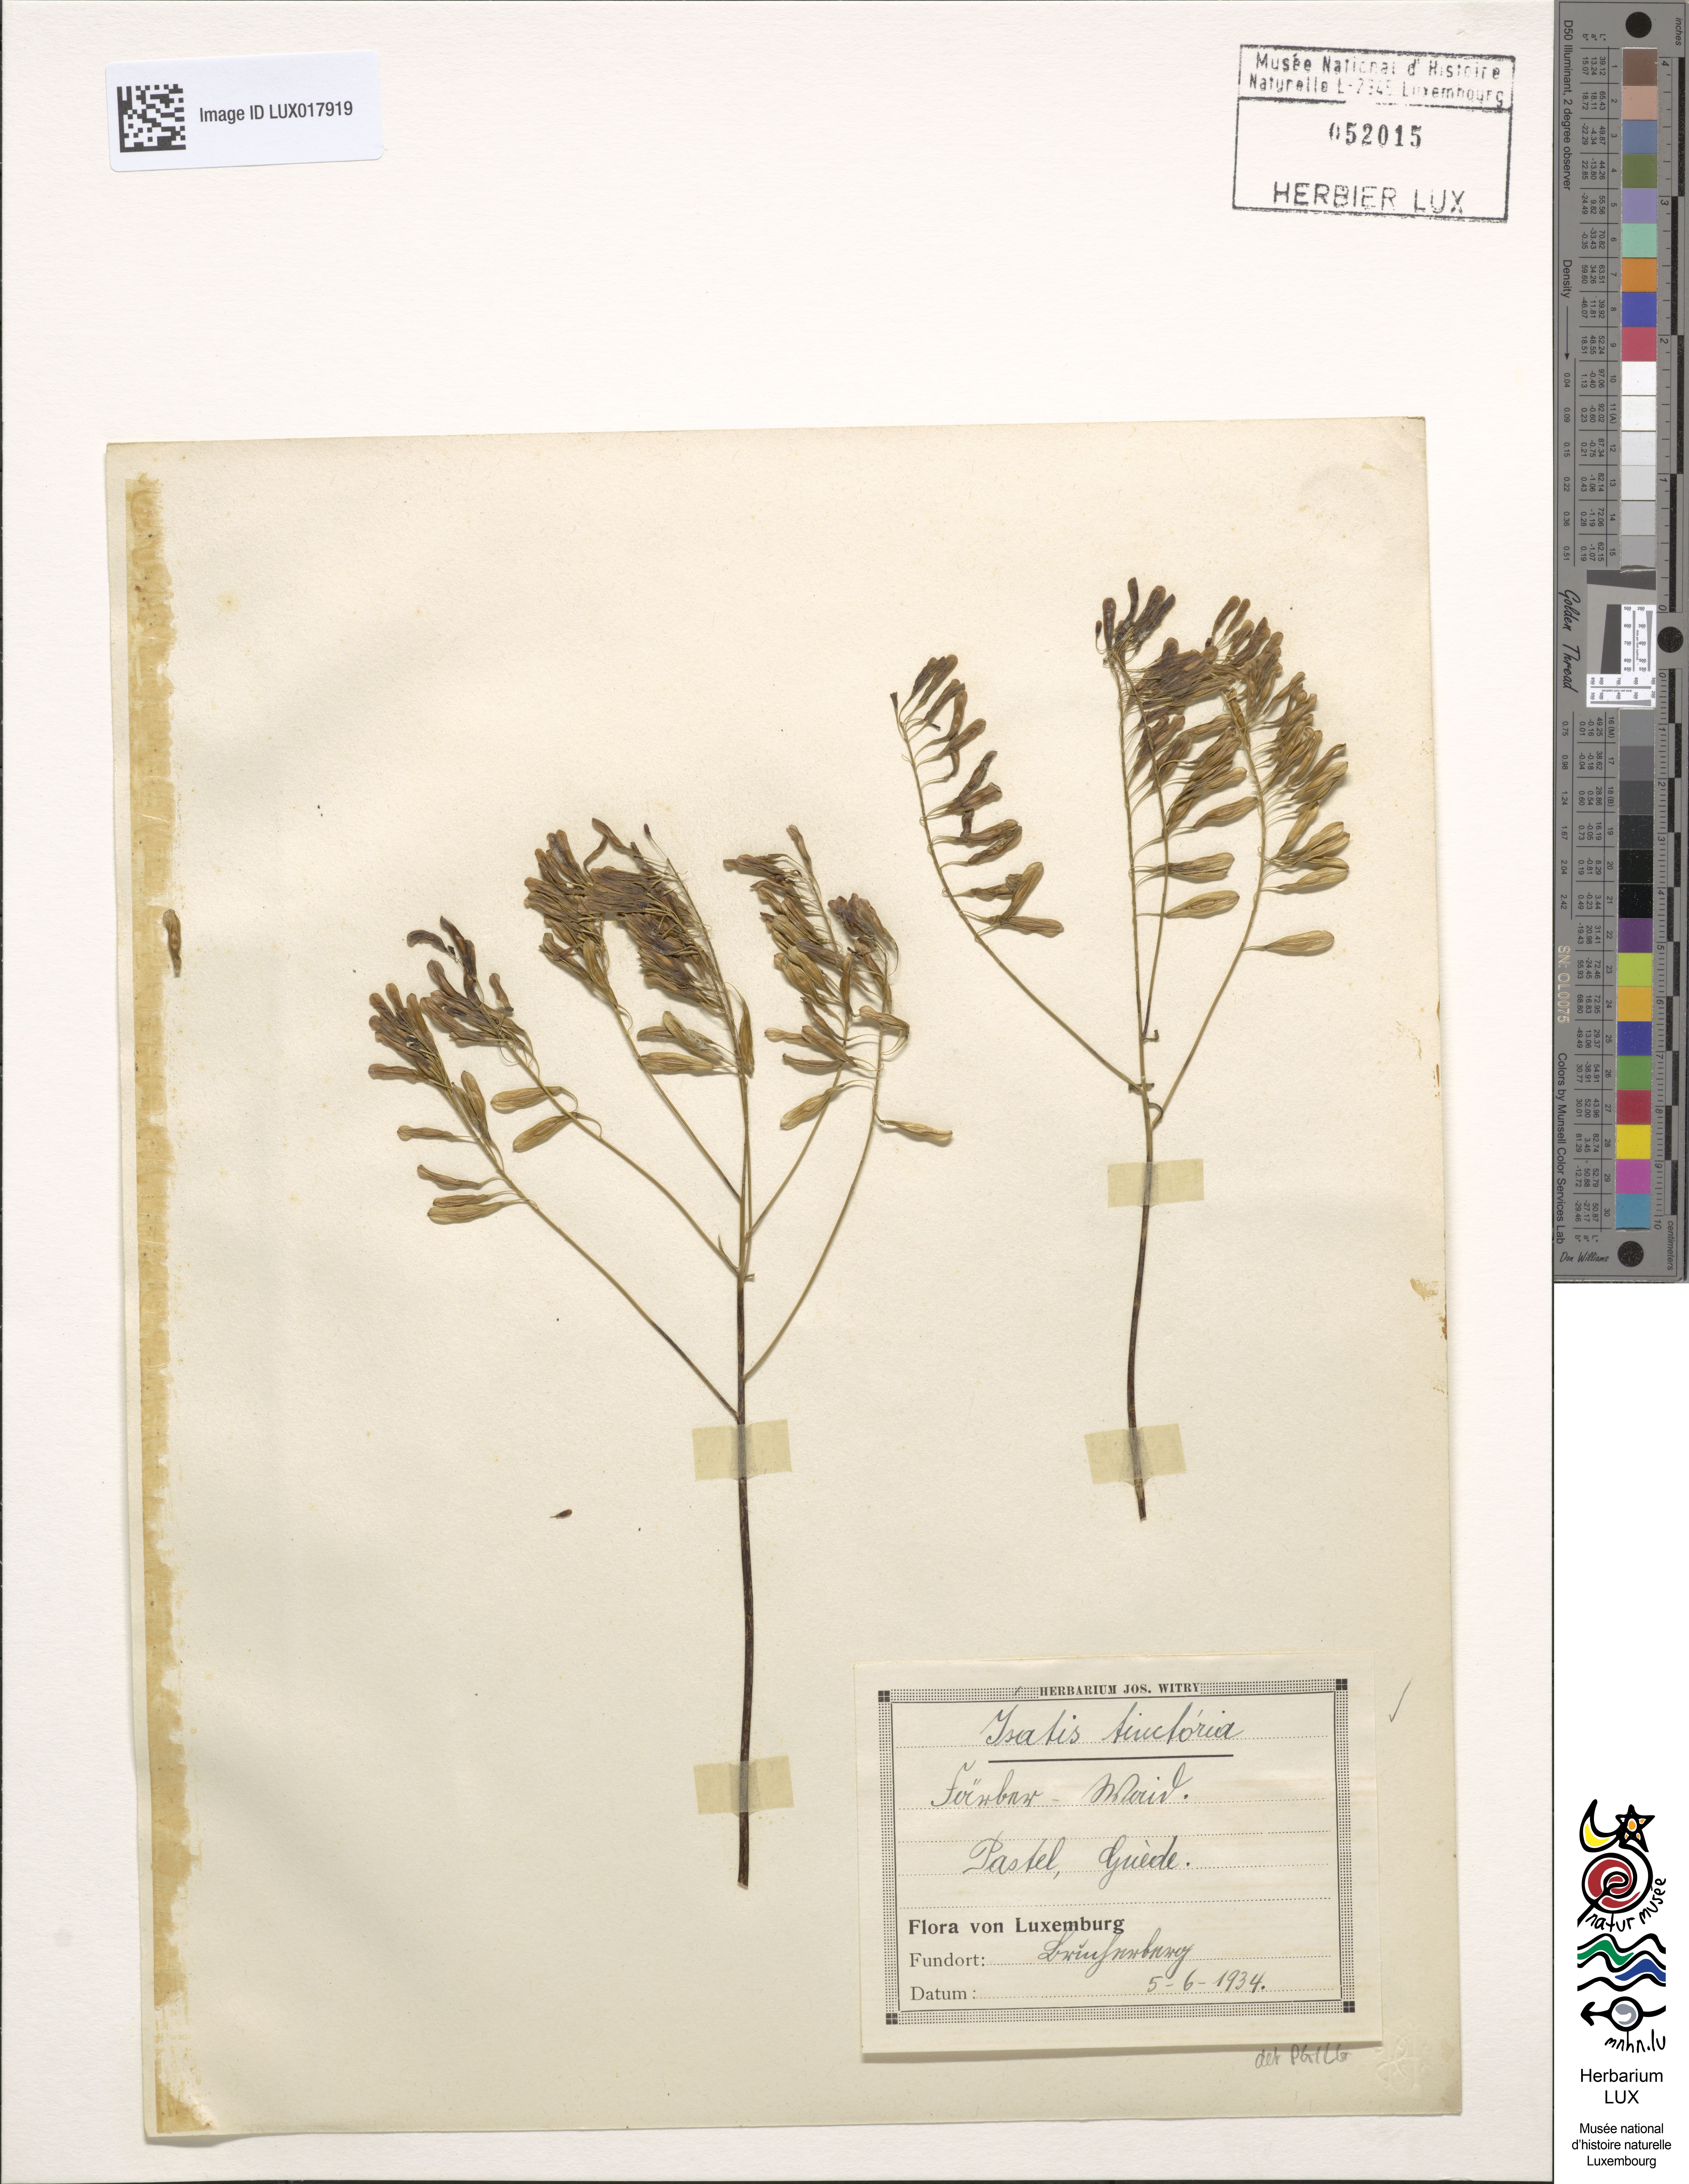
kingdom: Plantae
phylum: Tracheophyta
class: Magnoliopsida
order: Brassicales
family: Brassicaceae
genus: Isatis
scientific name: Isatis tinctoria
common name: Woad
